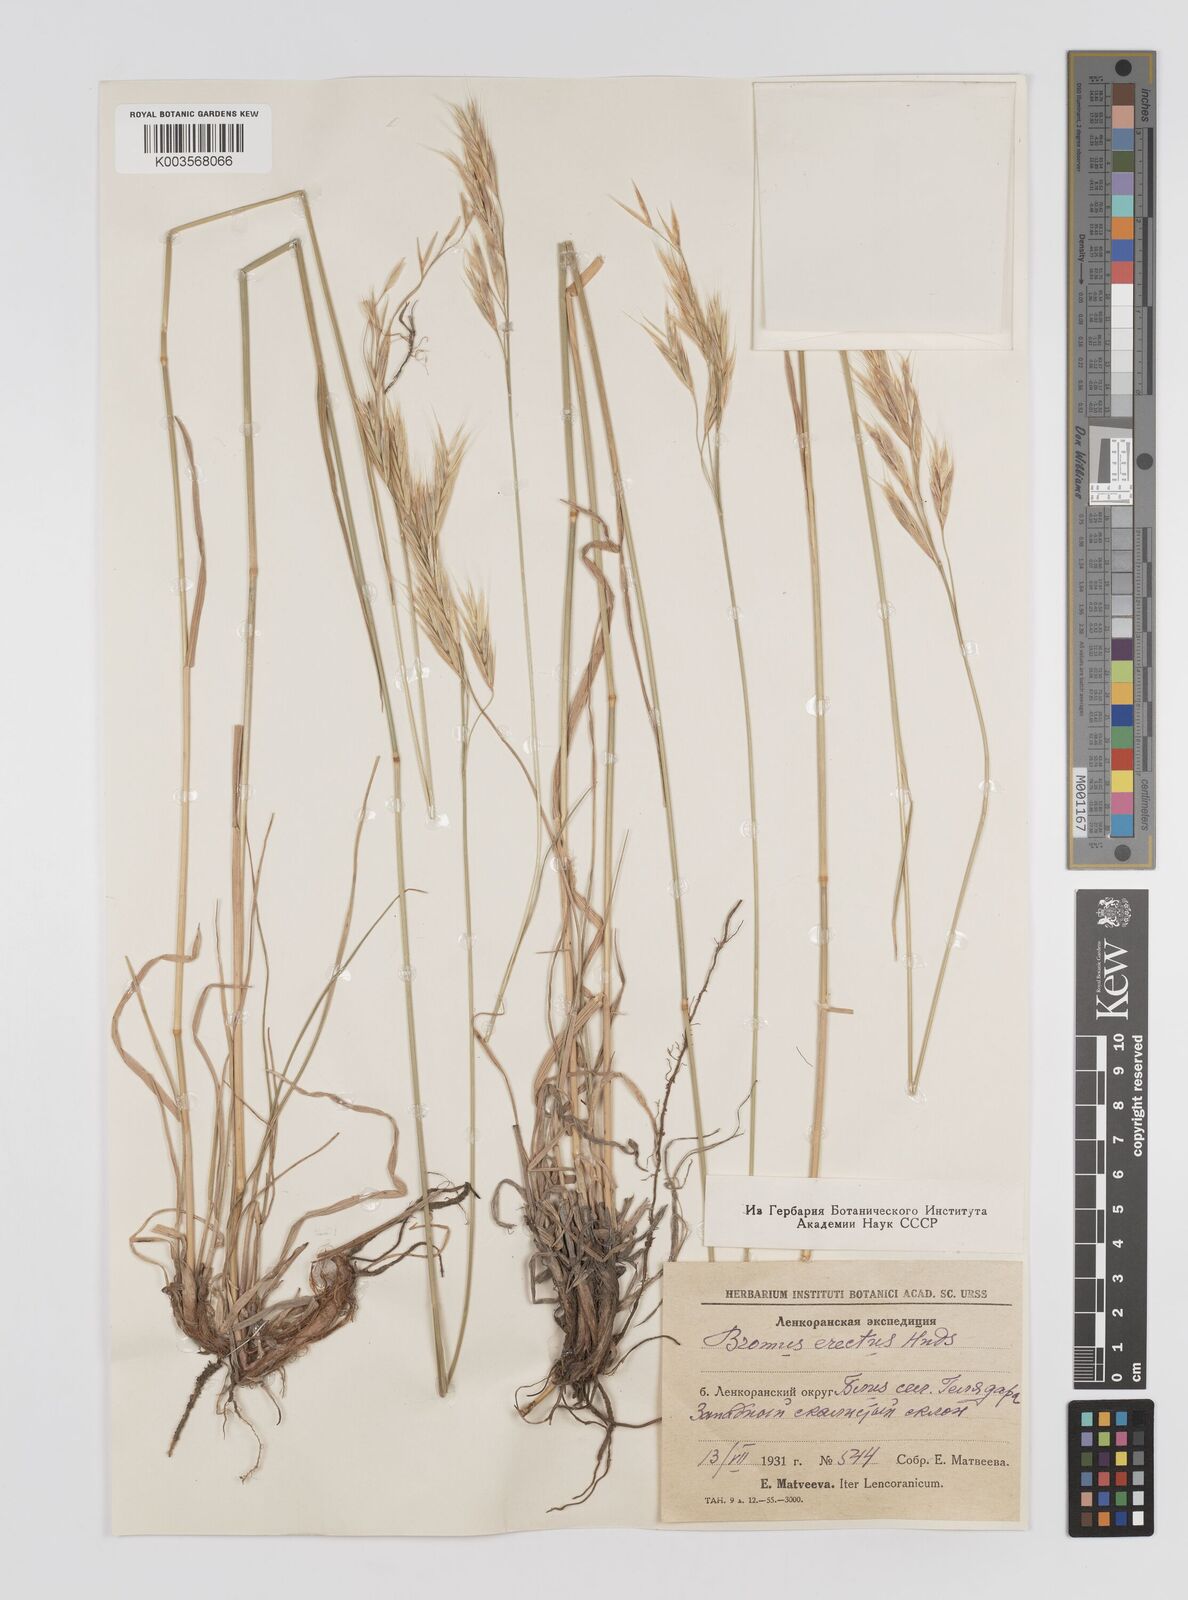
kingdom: Plantae
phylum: Tracheophyta
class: Liliopsida
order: Poales
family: Poaceae
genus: Bromus
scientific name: Bromus erectus
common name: Erect brome
